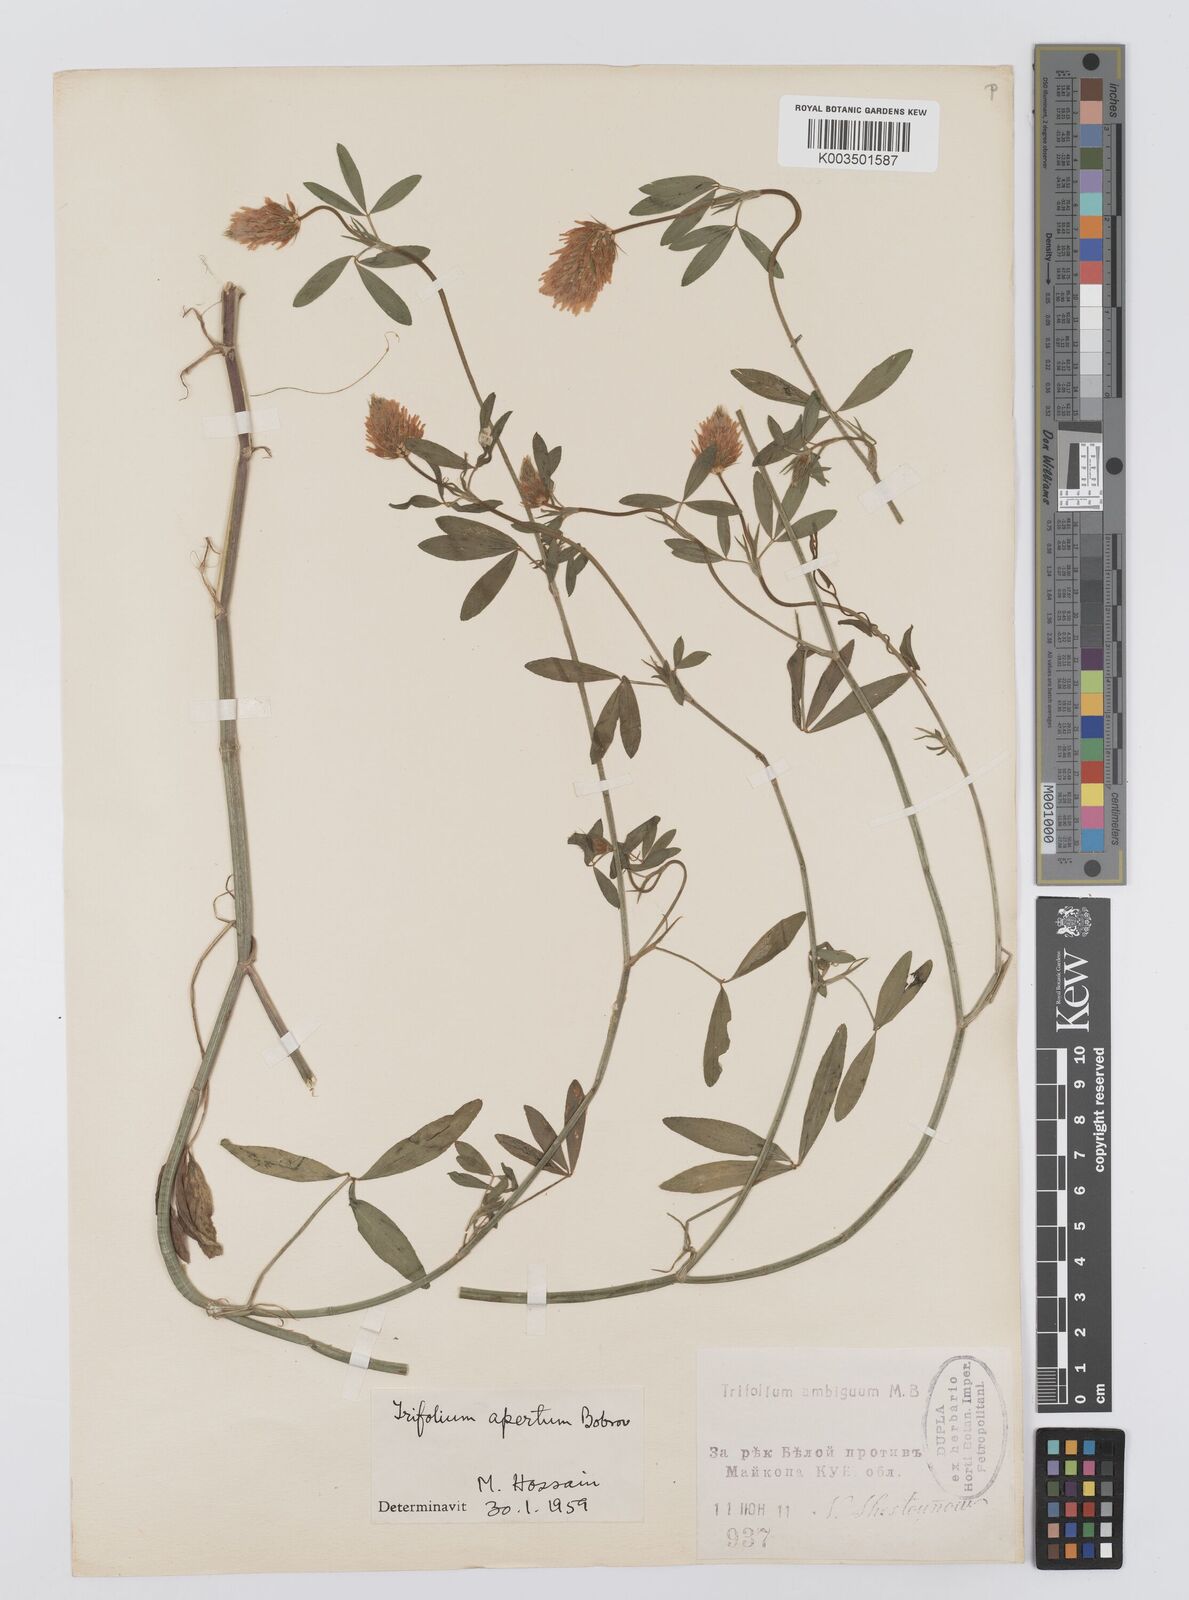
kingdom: Plantae
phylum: Tracheophyta
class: Magnoliopsida
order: Fabales
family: Fabaceae
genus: Trifolium
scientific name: Trifolium apertum
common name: Open clover
